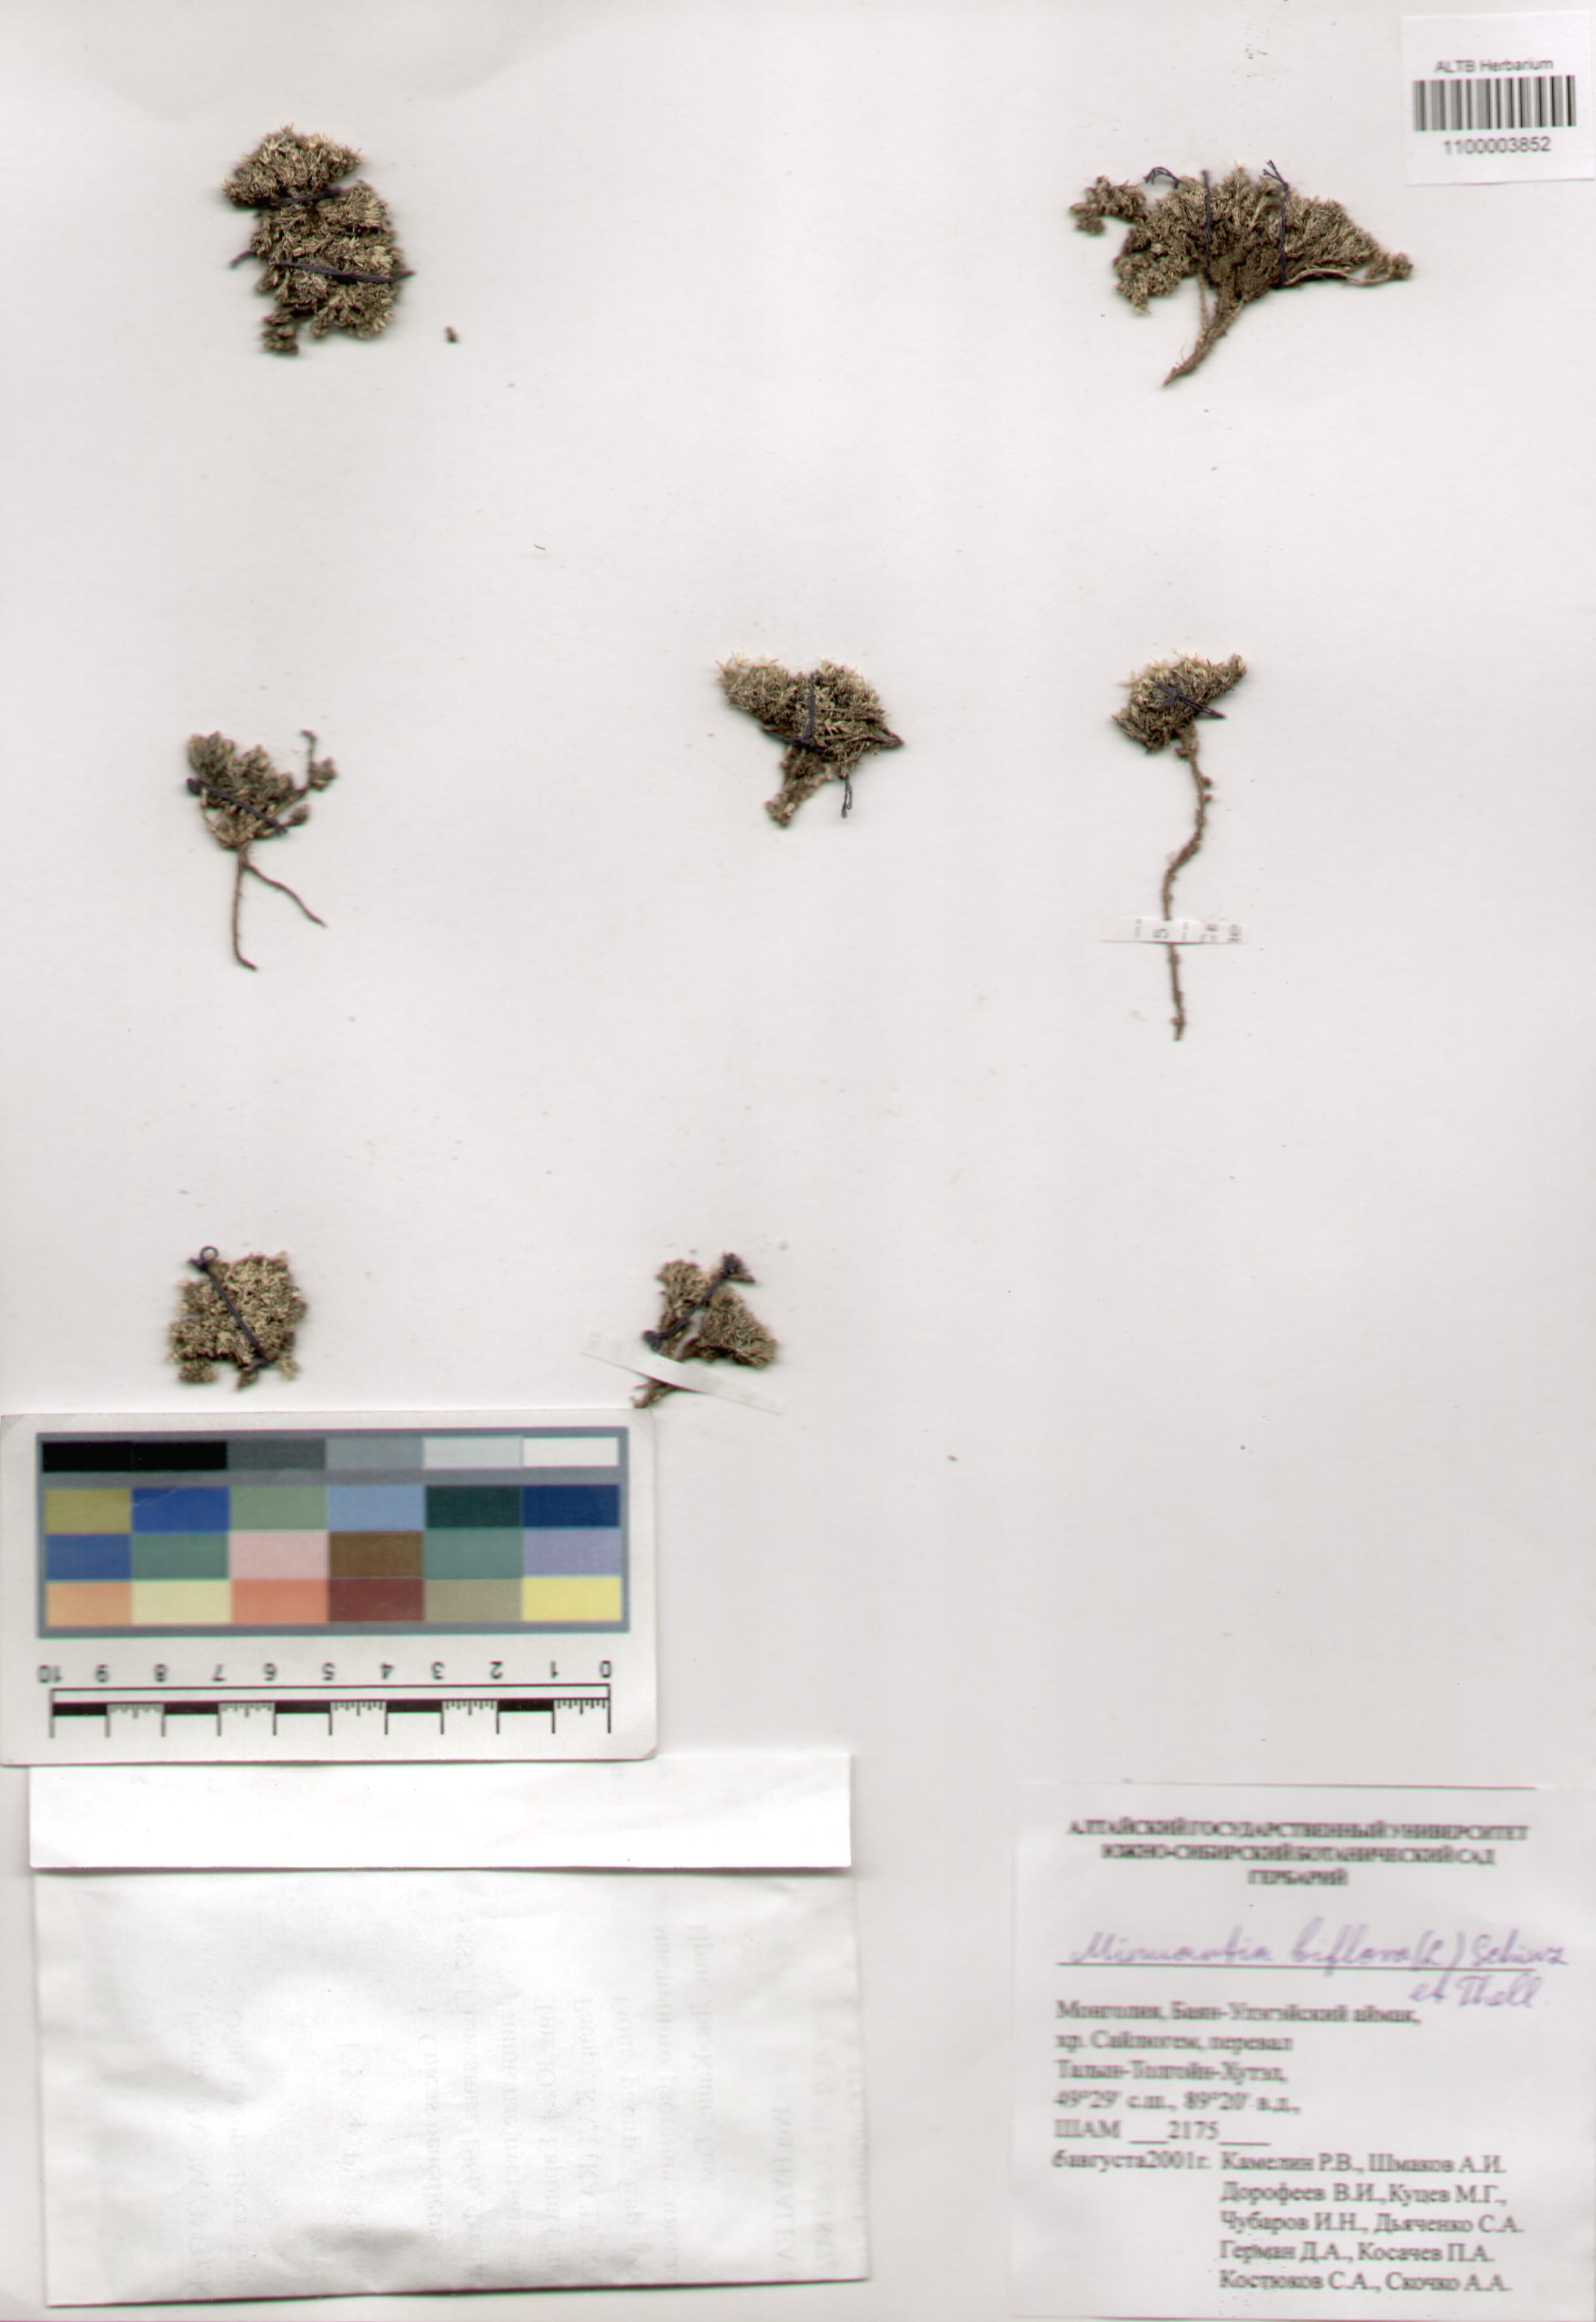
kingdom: Plantae
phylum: Tracheophyta
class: Magnoliopsida
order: Caryophyllales
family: Caryophyllaceae
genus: Cherleria
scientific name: Cherleria biflora
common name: Mountain sandwort
